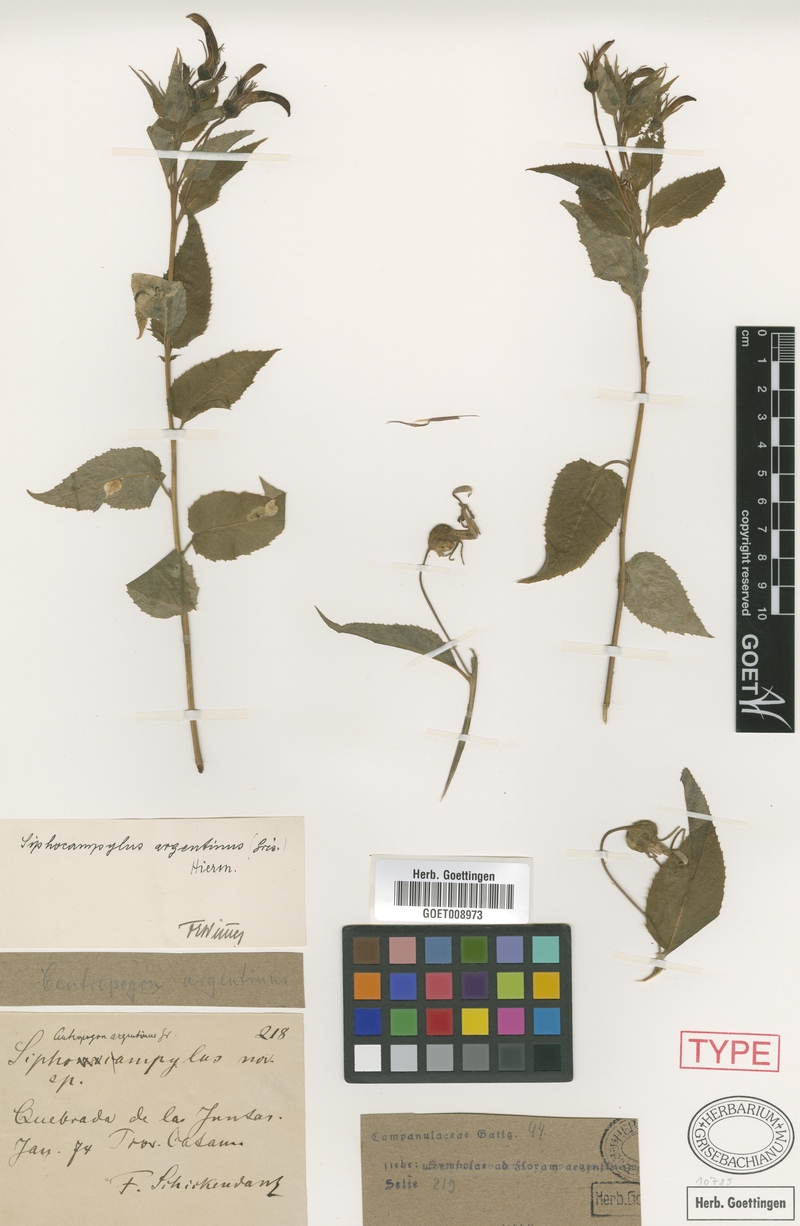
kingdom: Plantae
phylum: Tracheophyta
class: Magnoliopsida
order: Asterales
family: Campanulaceae
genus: Siphocampylus
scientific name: Siphocampylus argentinus
